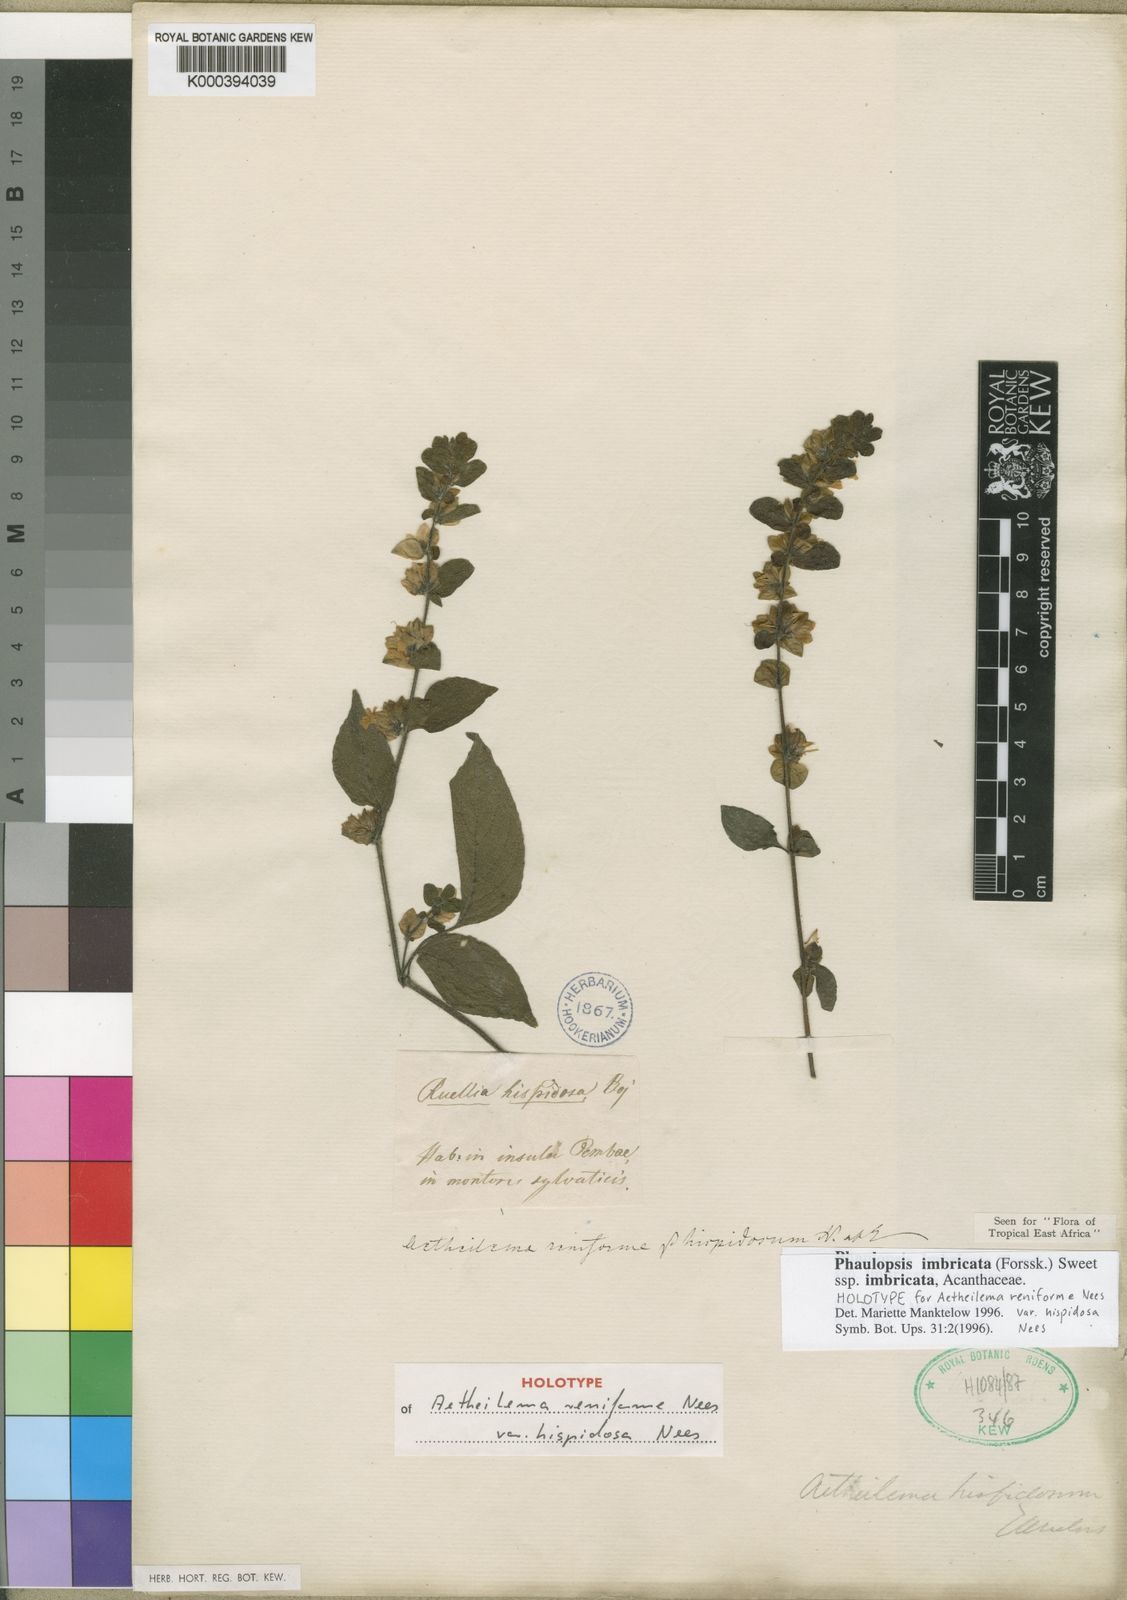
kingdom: Plantae
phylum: Tracheophyta
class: Magnoliopsida
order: Lamiales
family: Acanthaceae
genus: Phaulopsis
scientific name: Phaulopsis imbricata
